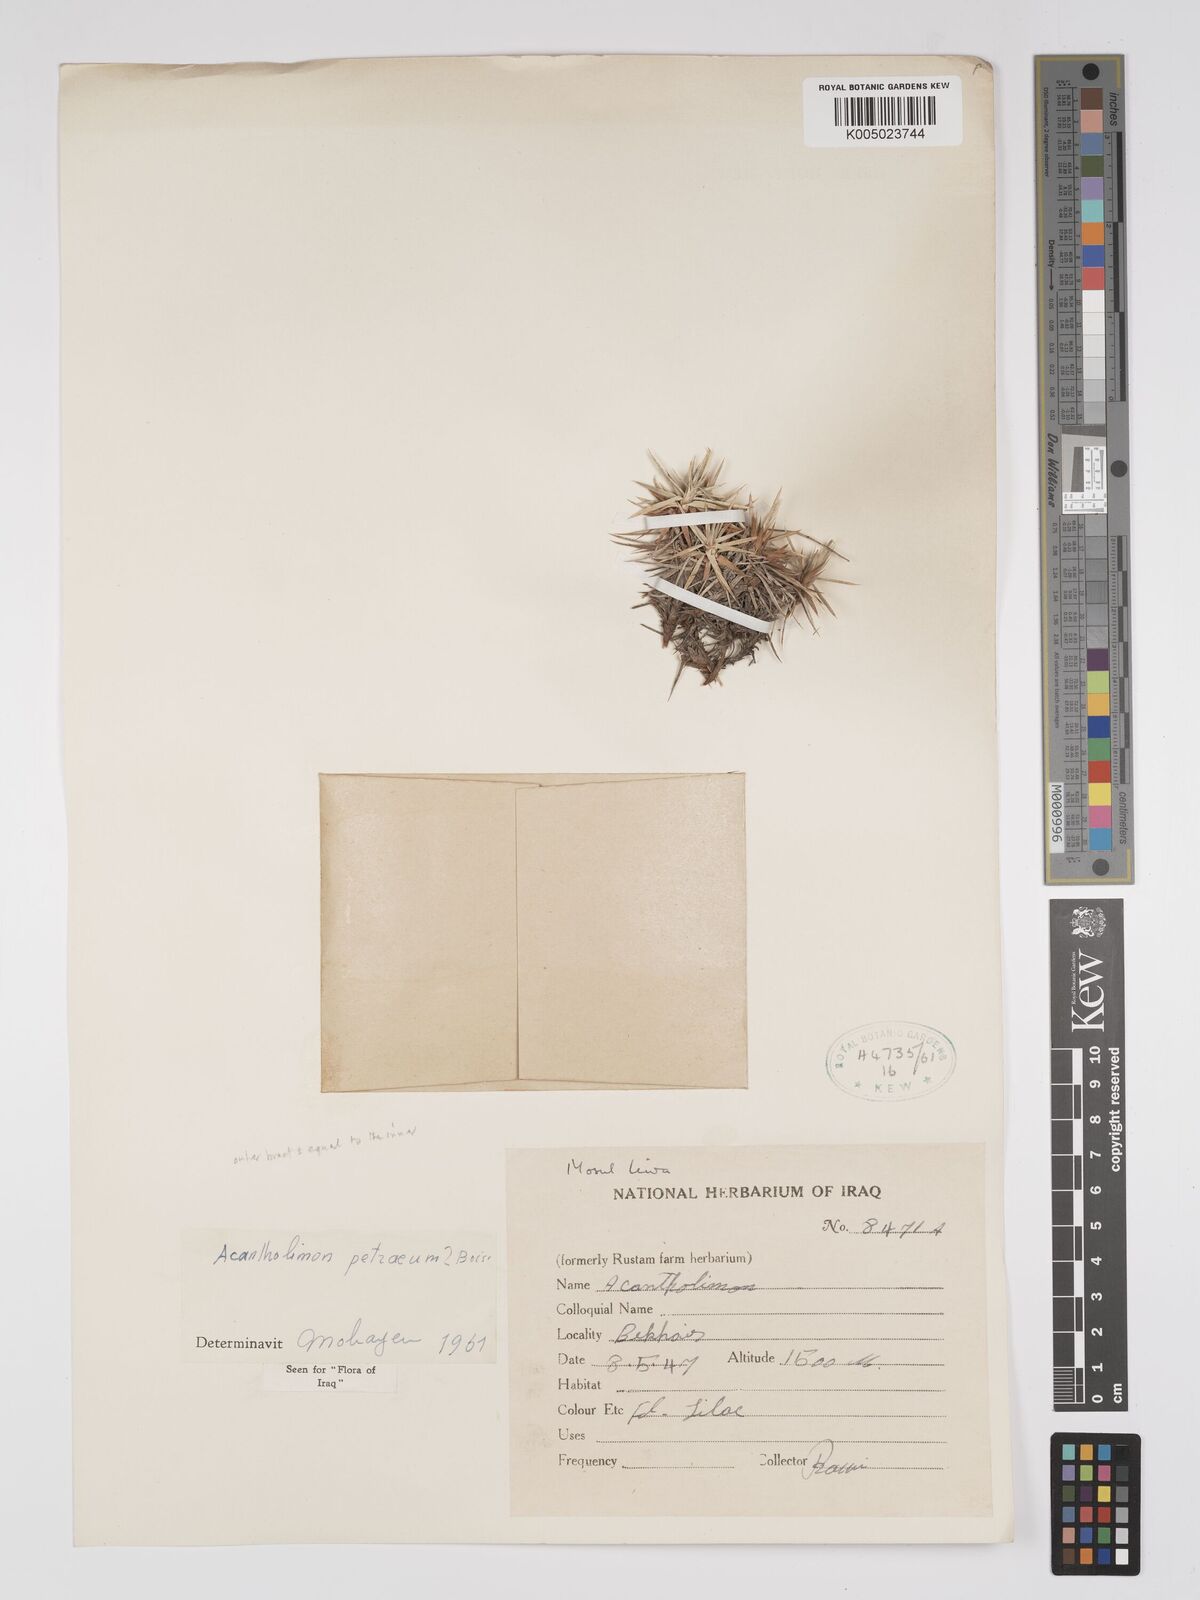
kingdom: Plantae
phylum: Tracheophyta
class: Magnoliopsida
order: Caryophyllales
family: Plumbaginaceae
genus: Acantholimon
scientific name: Acantholimon petraeum
